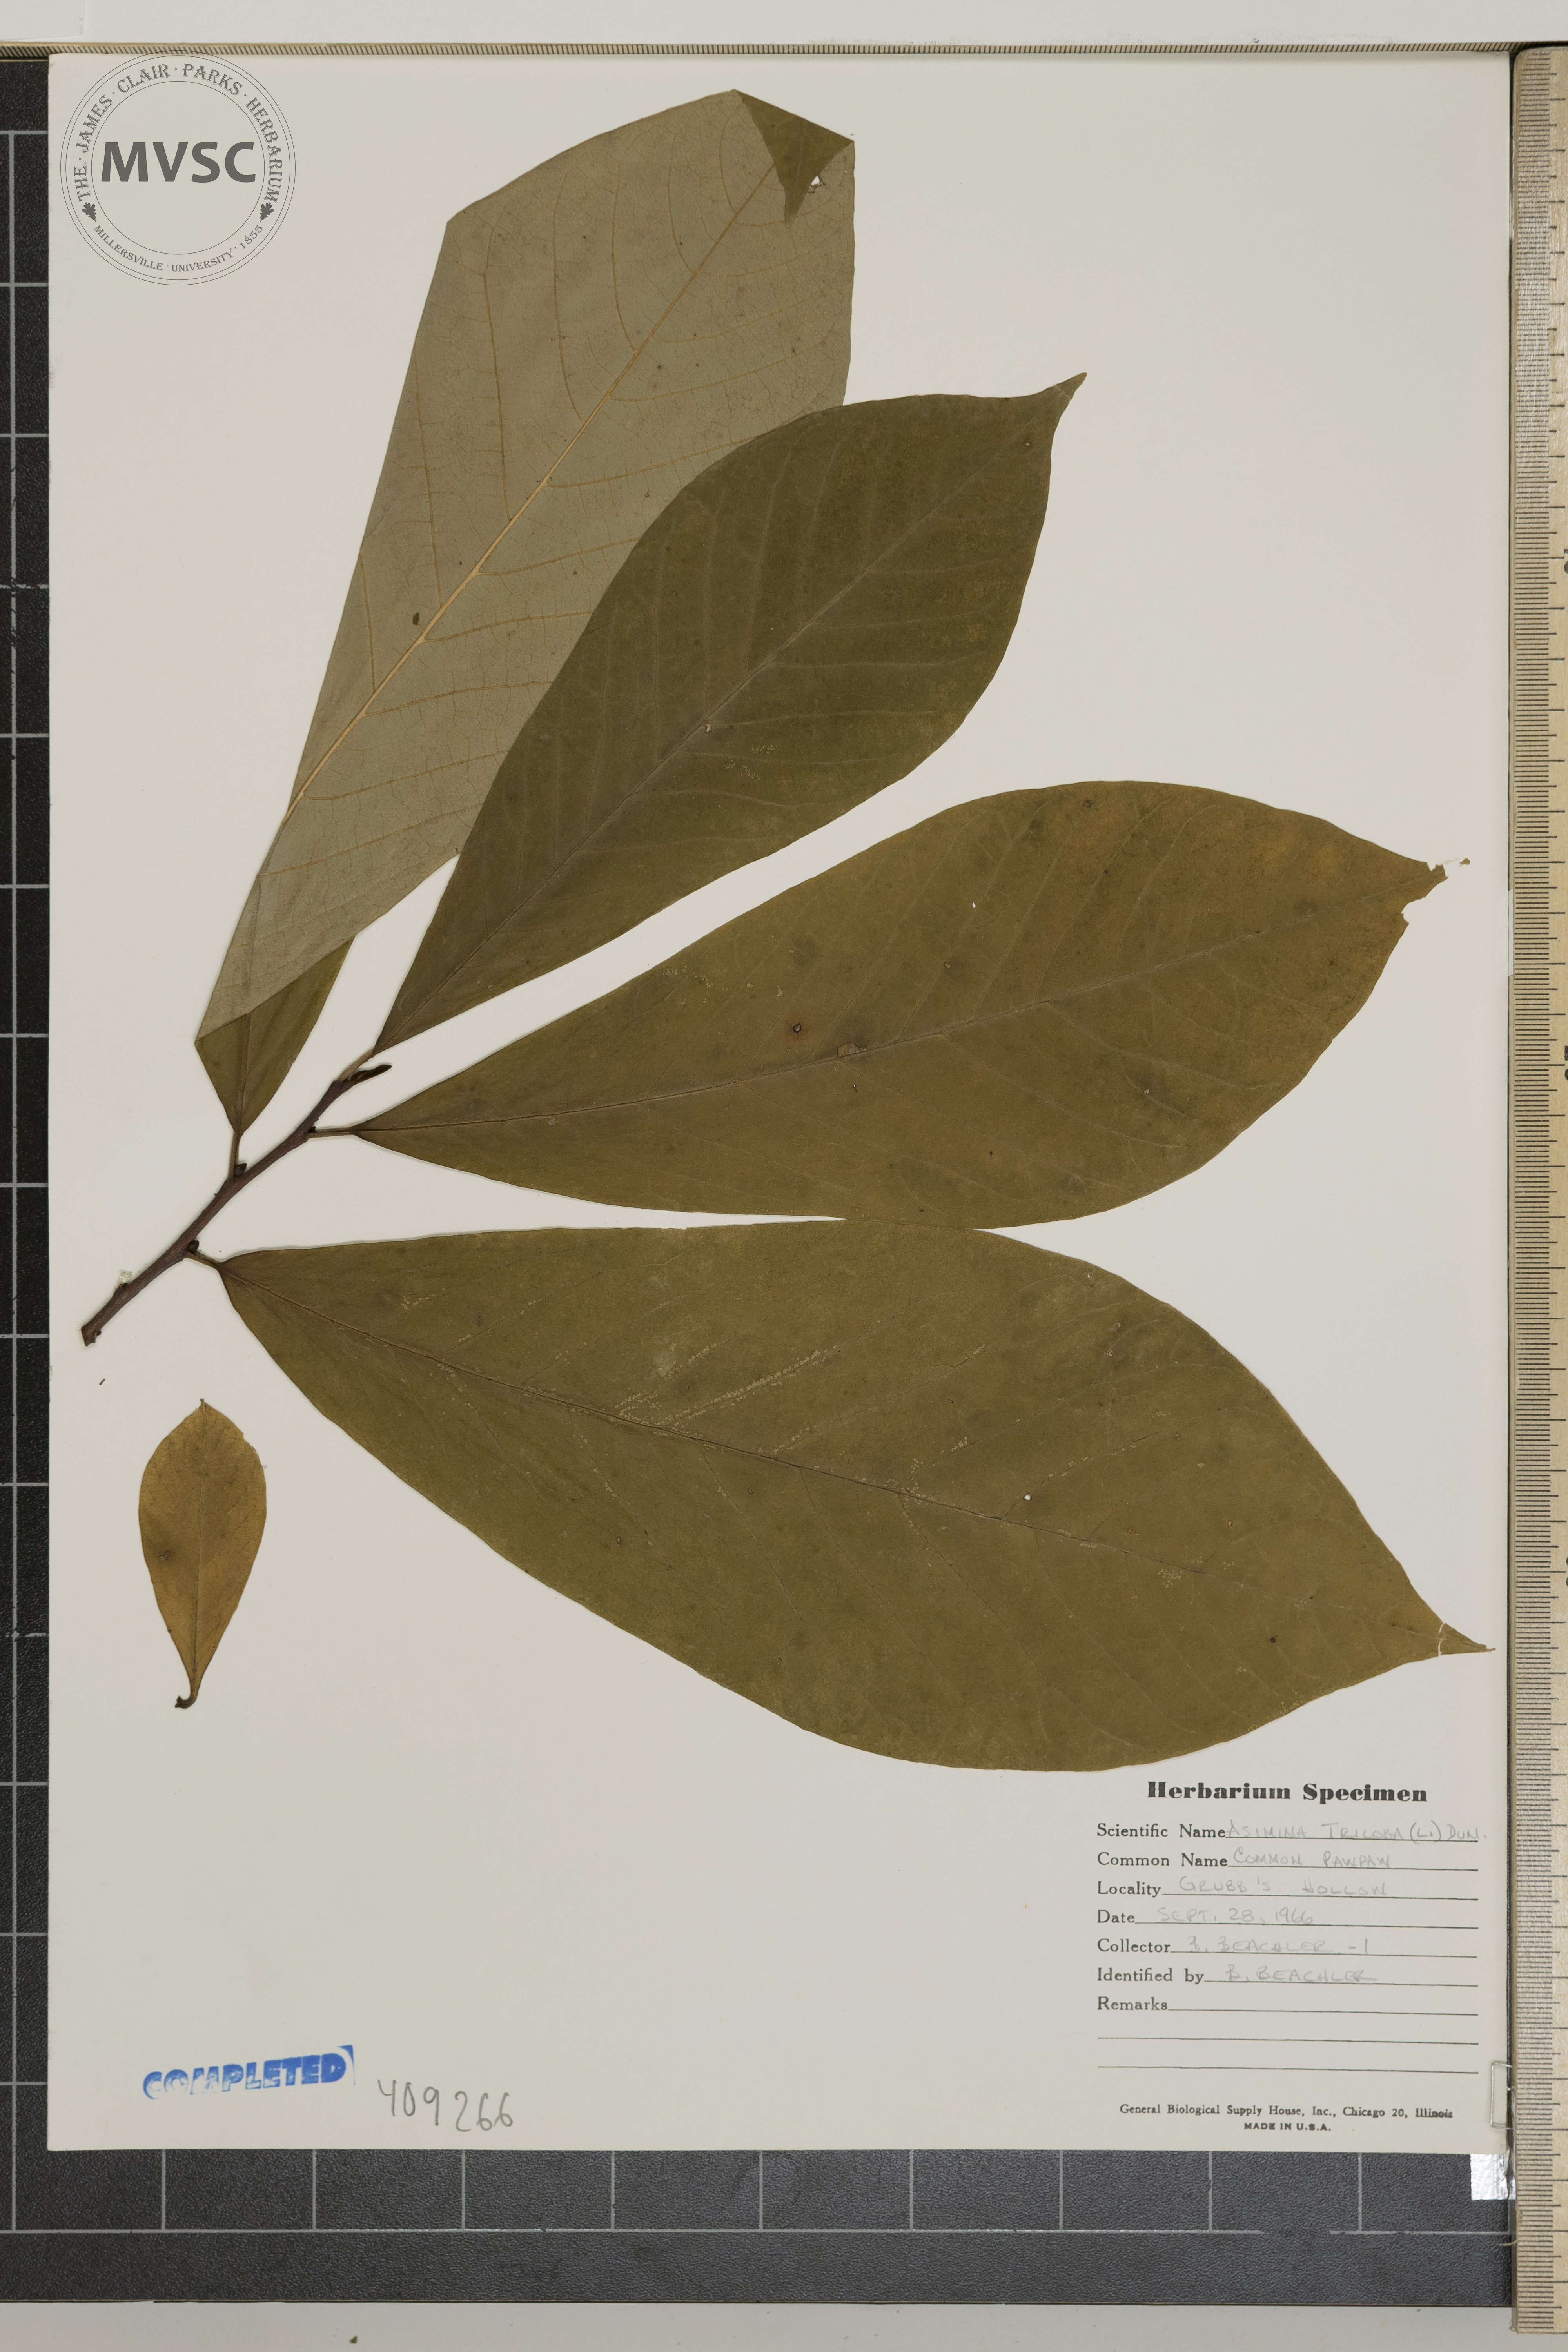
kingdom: Plantae
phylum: Tracheophyta
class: Magnoliopsida
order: Magnoliales
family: Annonaceae
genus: Asimina
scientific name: Asimina triloba
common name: Dog-banana
